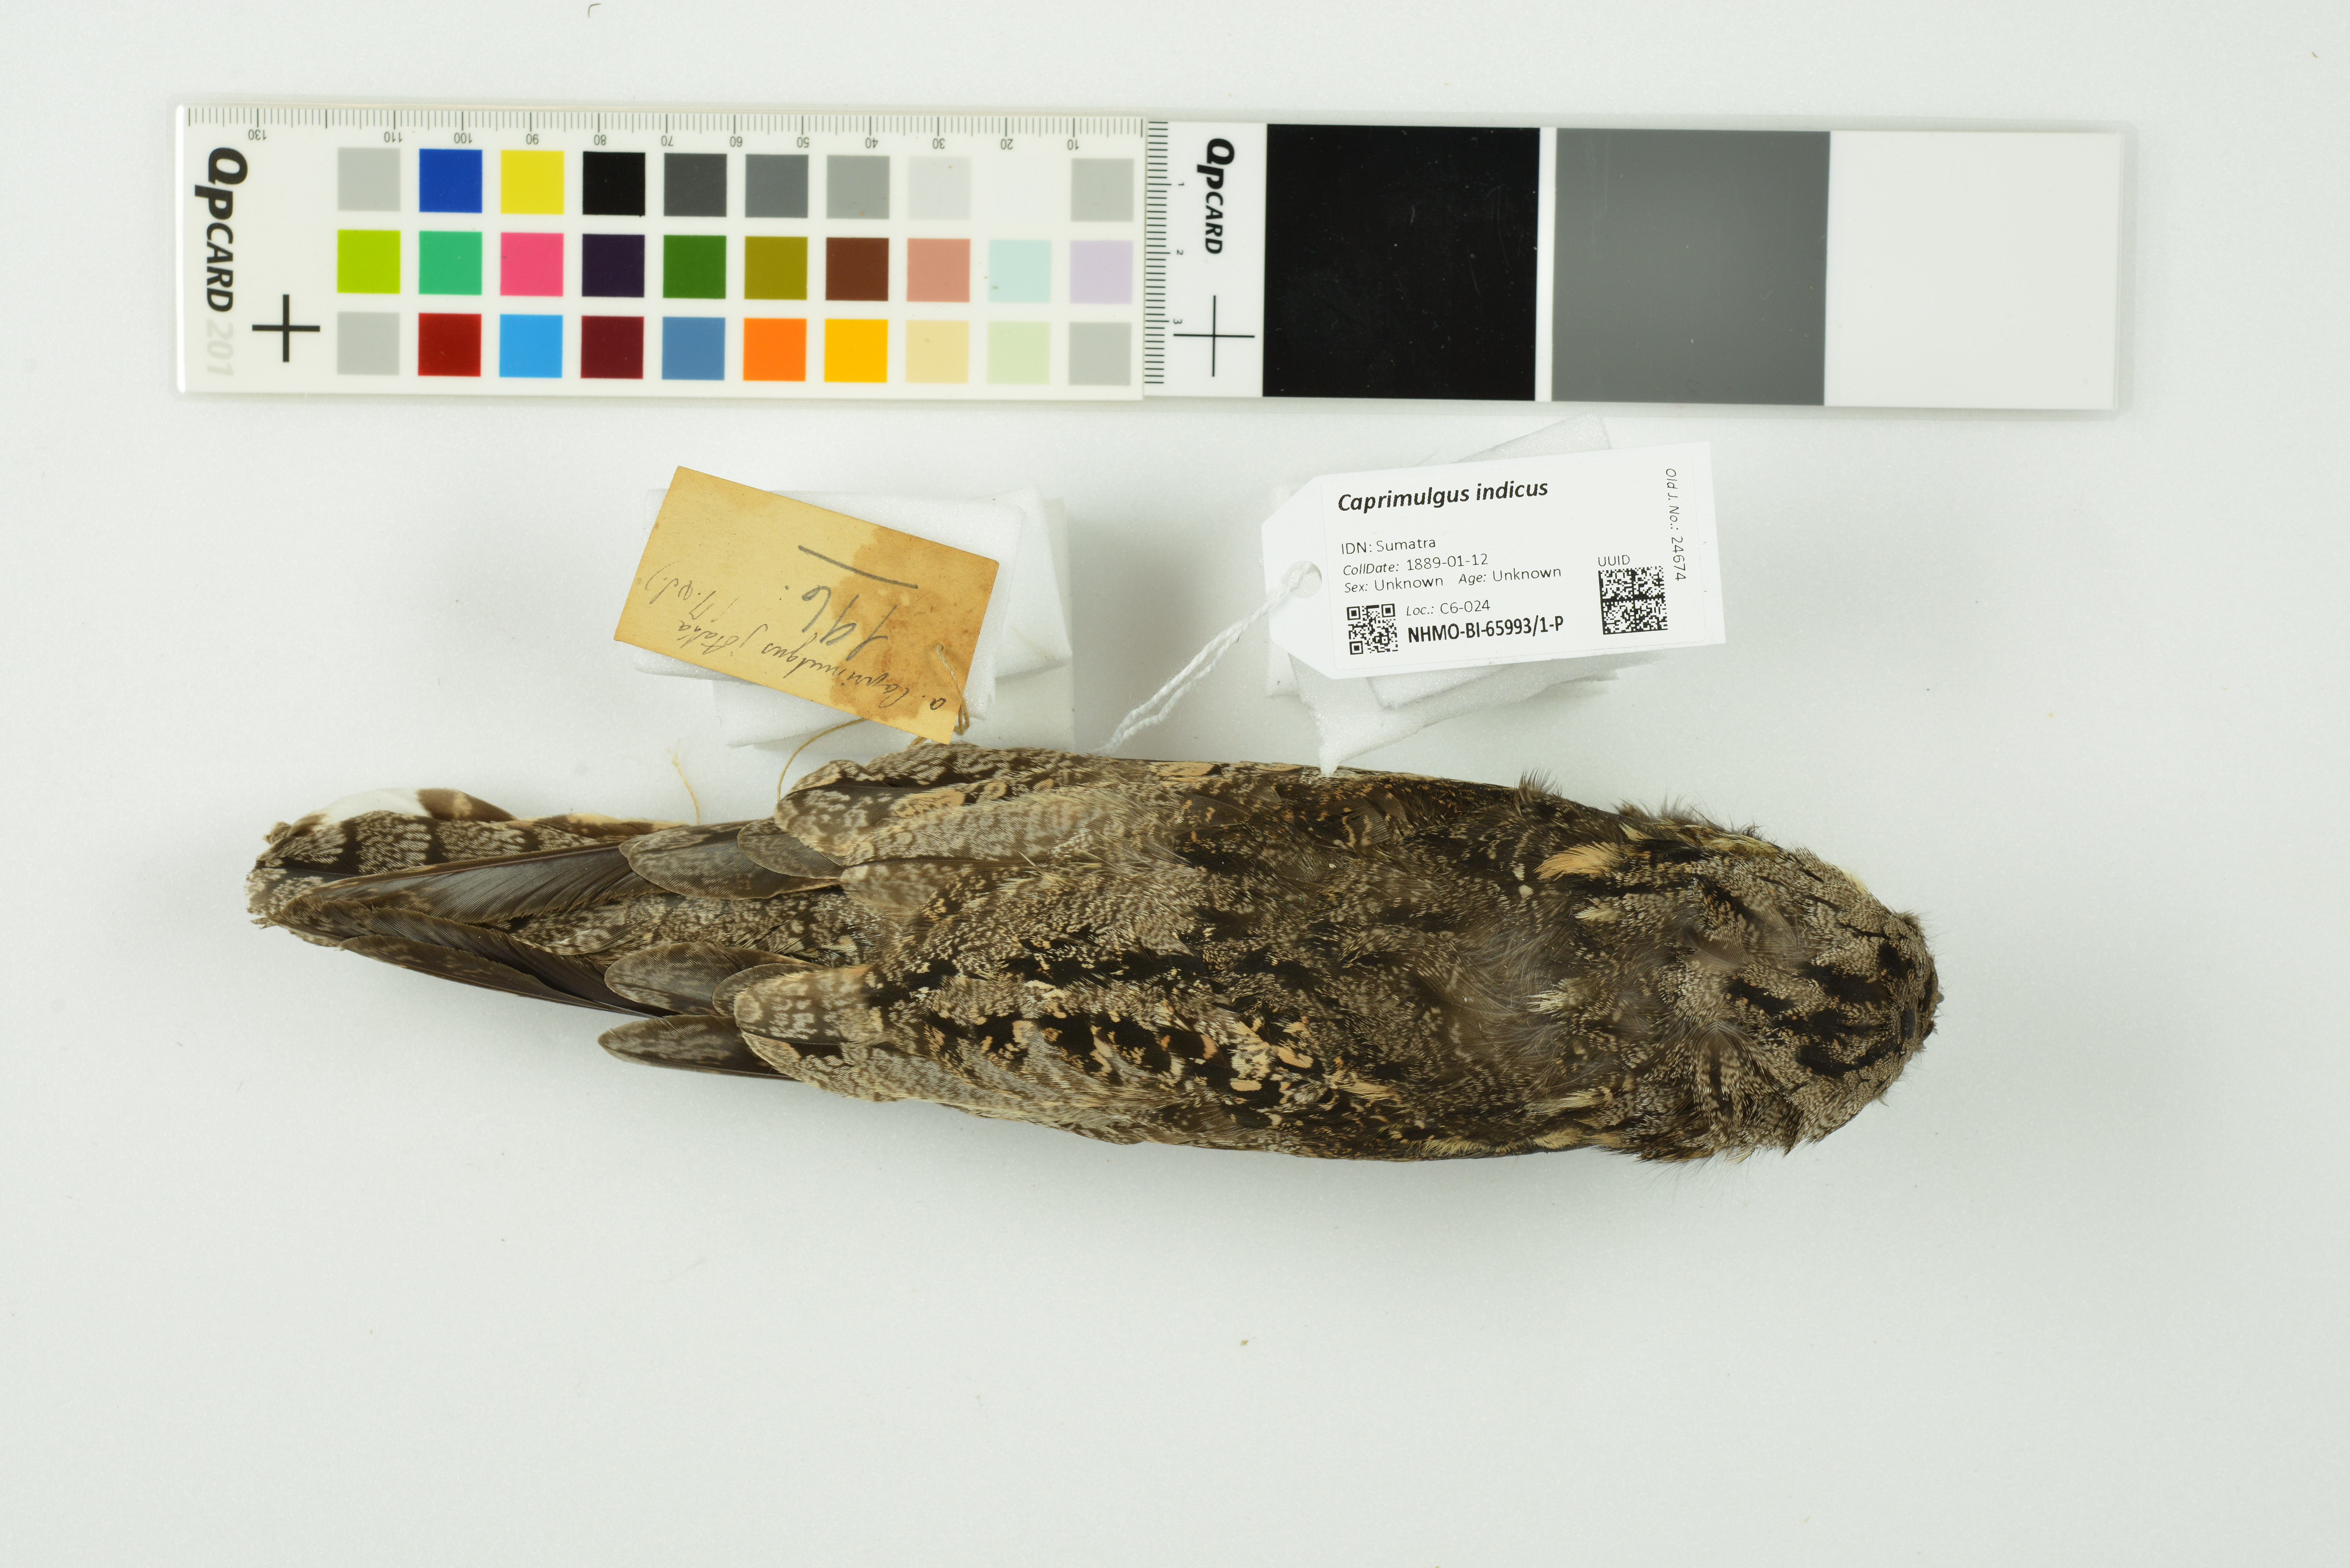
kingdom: Animalia
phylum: Chordata
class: Aves
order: Caprimulgiformes
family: Caprimulgidae
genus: Caprimulgus
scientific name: Caprimulgus indicus
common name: Jungle nightjar
